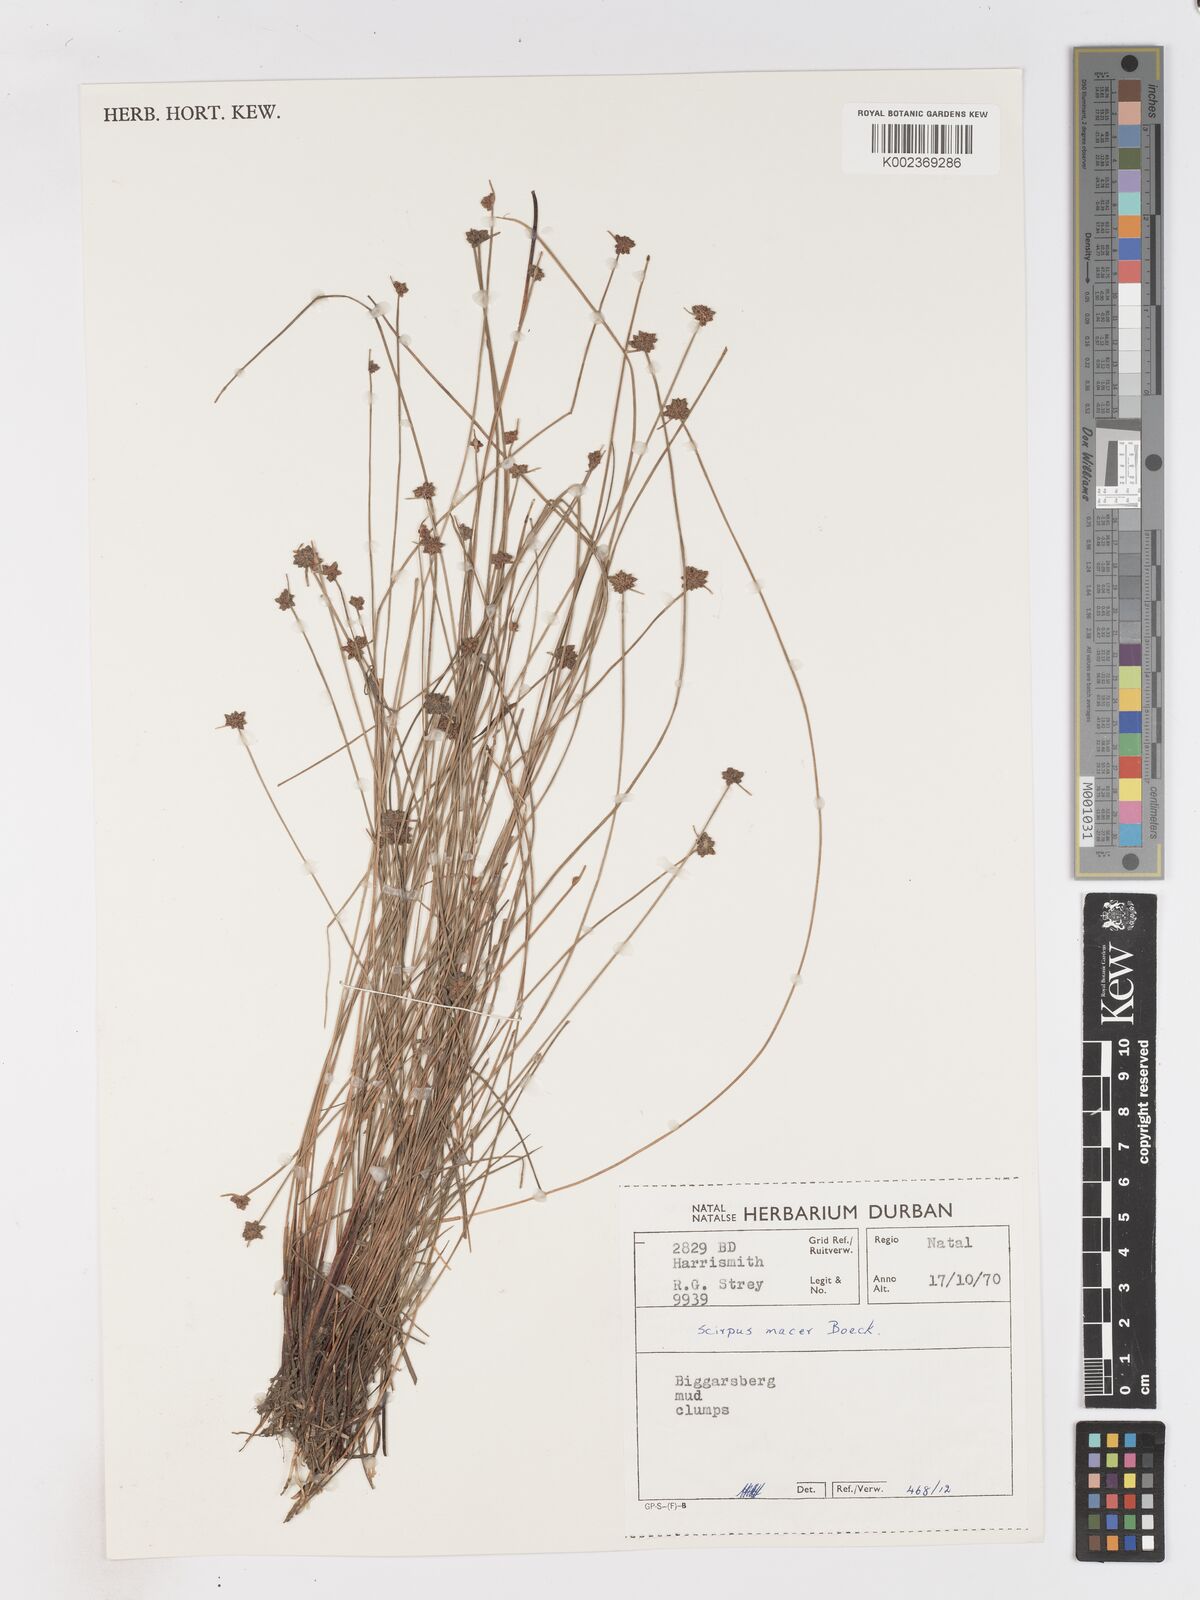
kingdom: Plantae
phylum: Tracheophyta
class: Liliopsida
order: Poales
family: Cyperaceae
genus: Isolepis
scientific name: Isolepis costata
